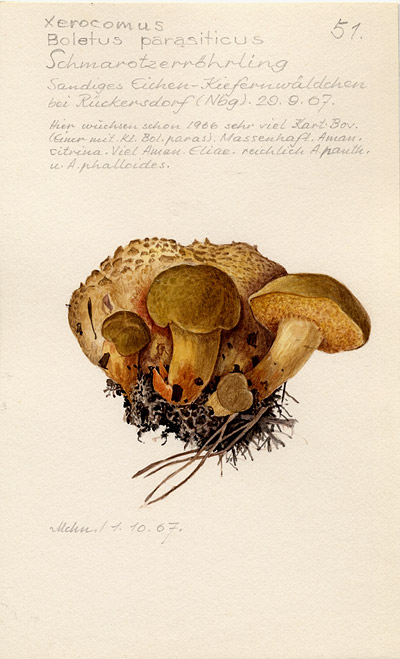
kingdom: Fungi
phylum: Basidiomycota
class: Agaricomycetes
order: Boletales
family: Boletaceae
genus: Pseudoboletus
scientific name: Pseudoboletus parasiticus
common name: Parasitic bolete
